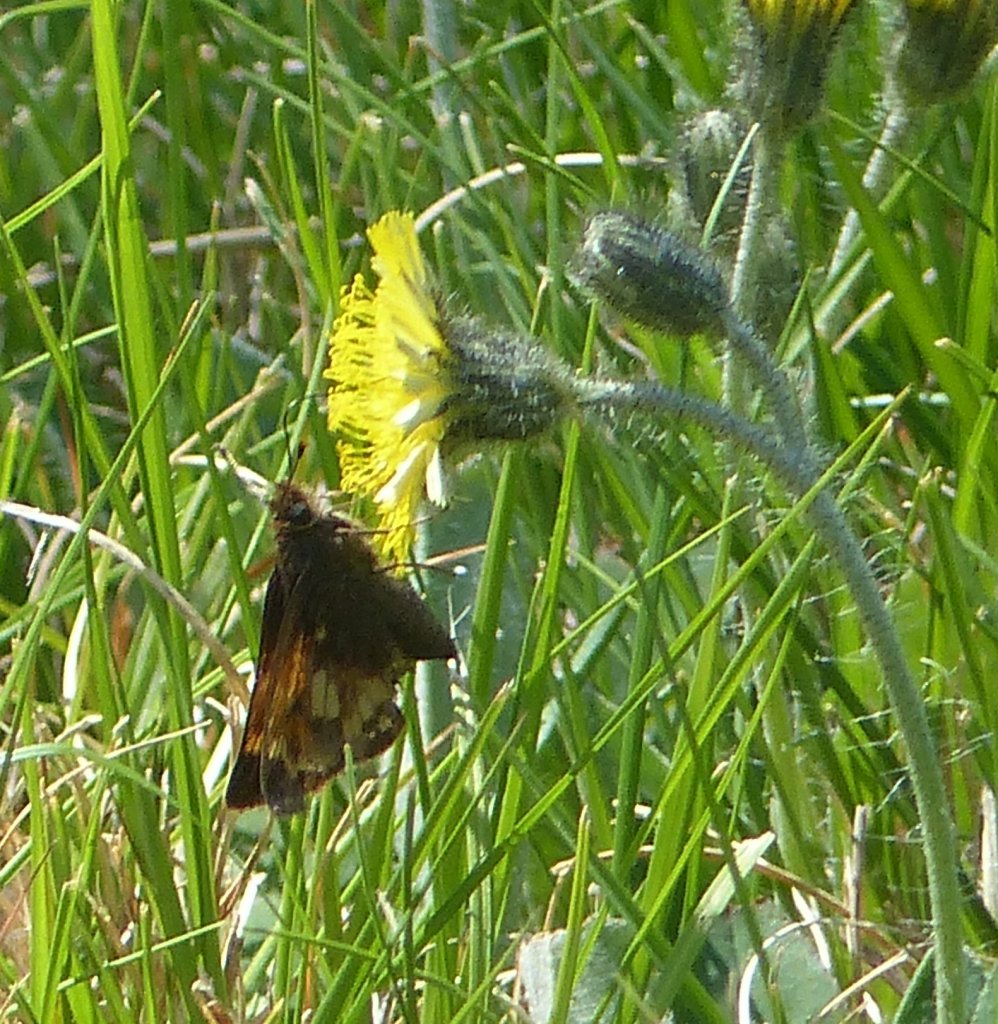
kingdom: Animalia
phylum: Arthropoda
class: Insecta
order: Lepidoptera
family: Hesperiidae
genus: Lon
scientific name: Lon hobomok
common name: Hobomok Skipper
